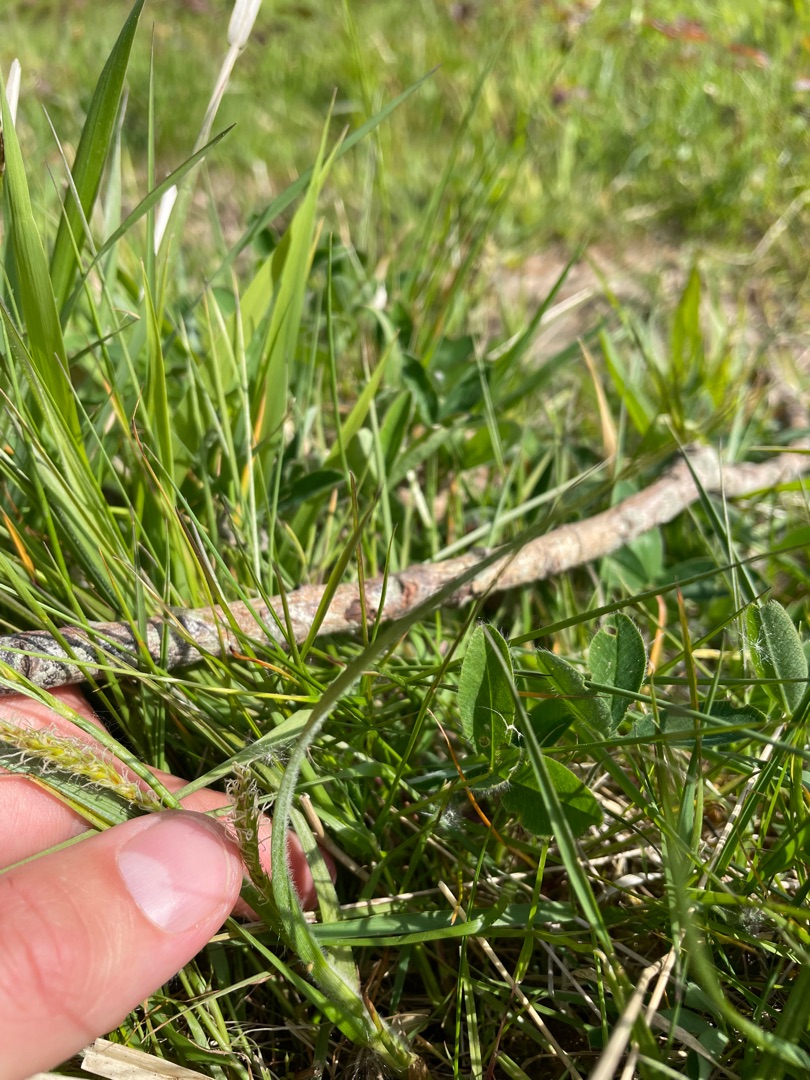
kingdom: Plantae
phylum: Tracheophyta
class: Liliopsida
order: Poales
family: Cyperaceae
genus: Carex
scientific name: Carex hirta
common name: Håret star
